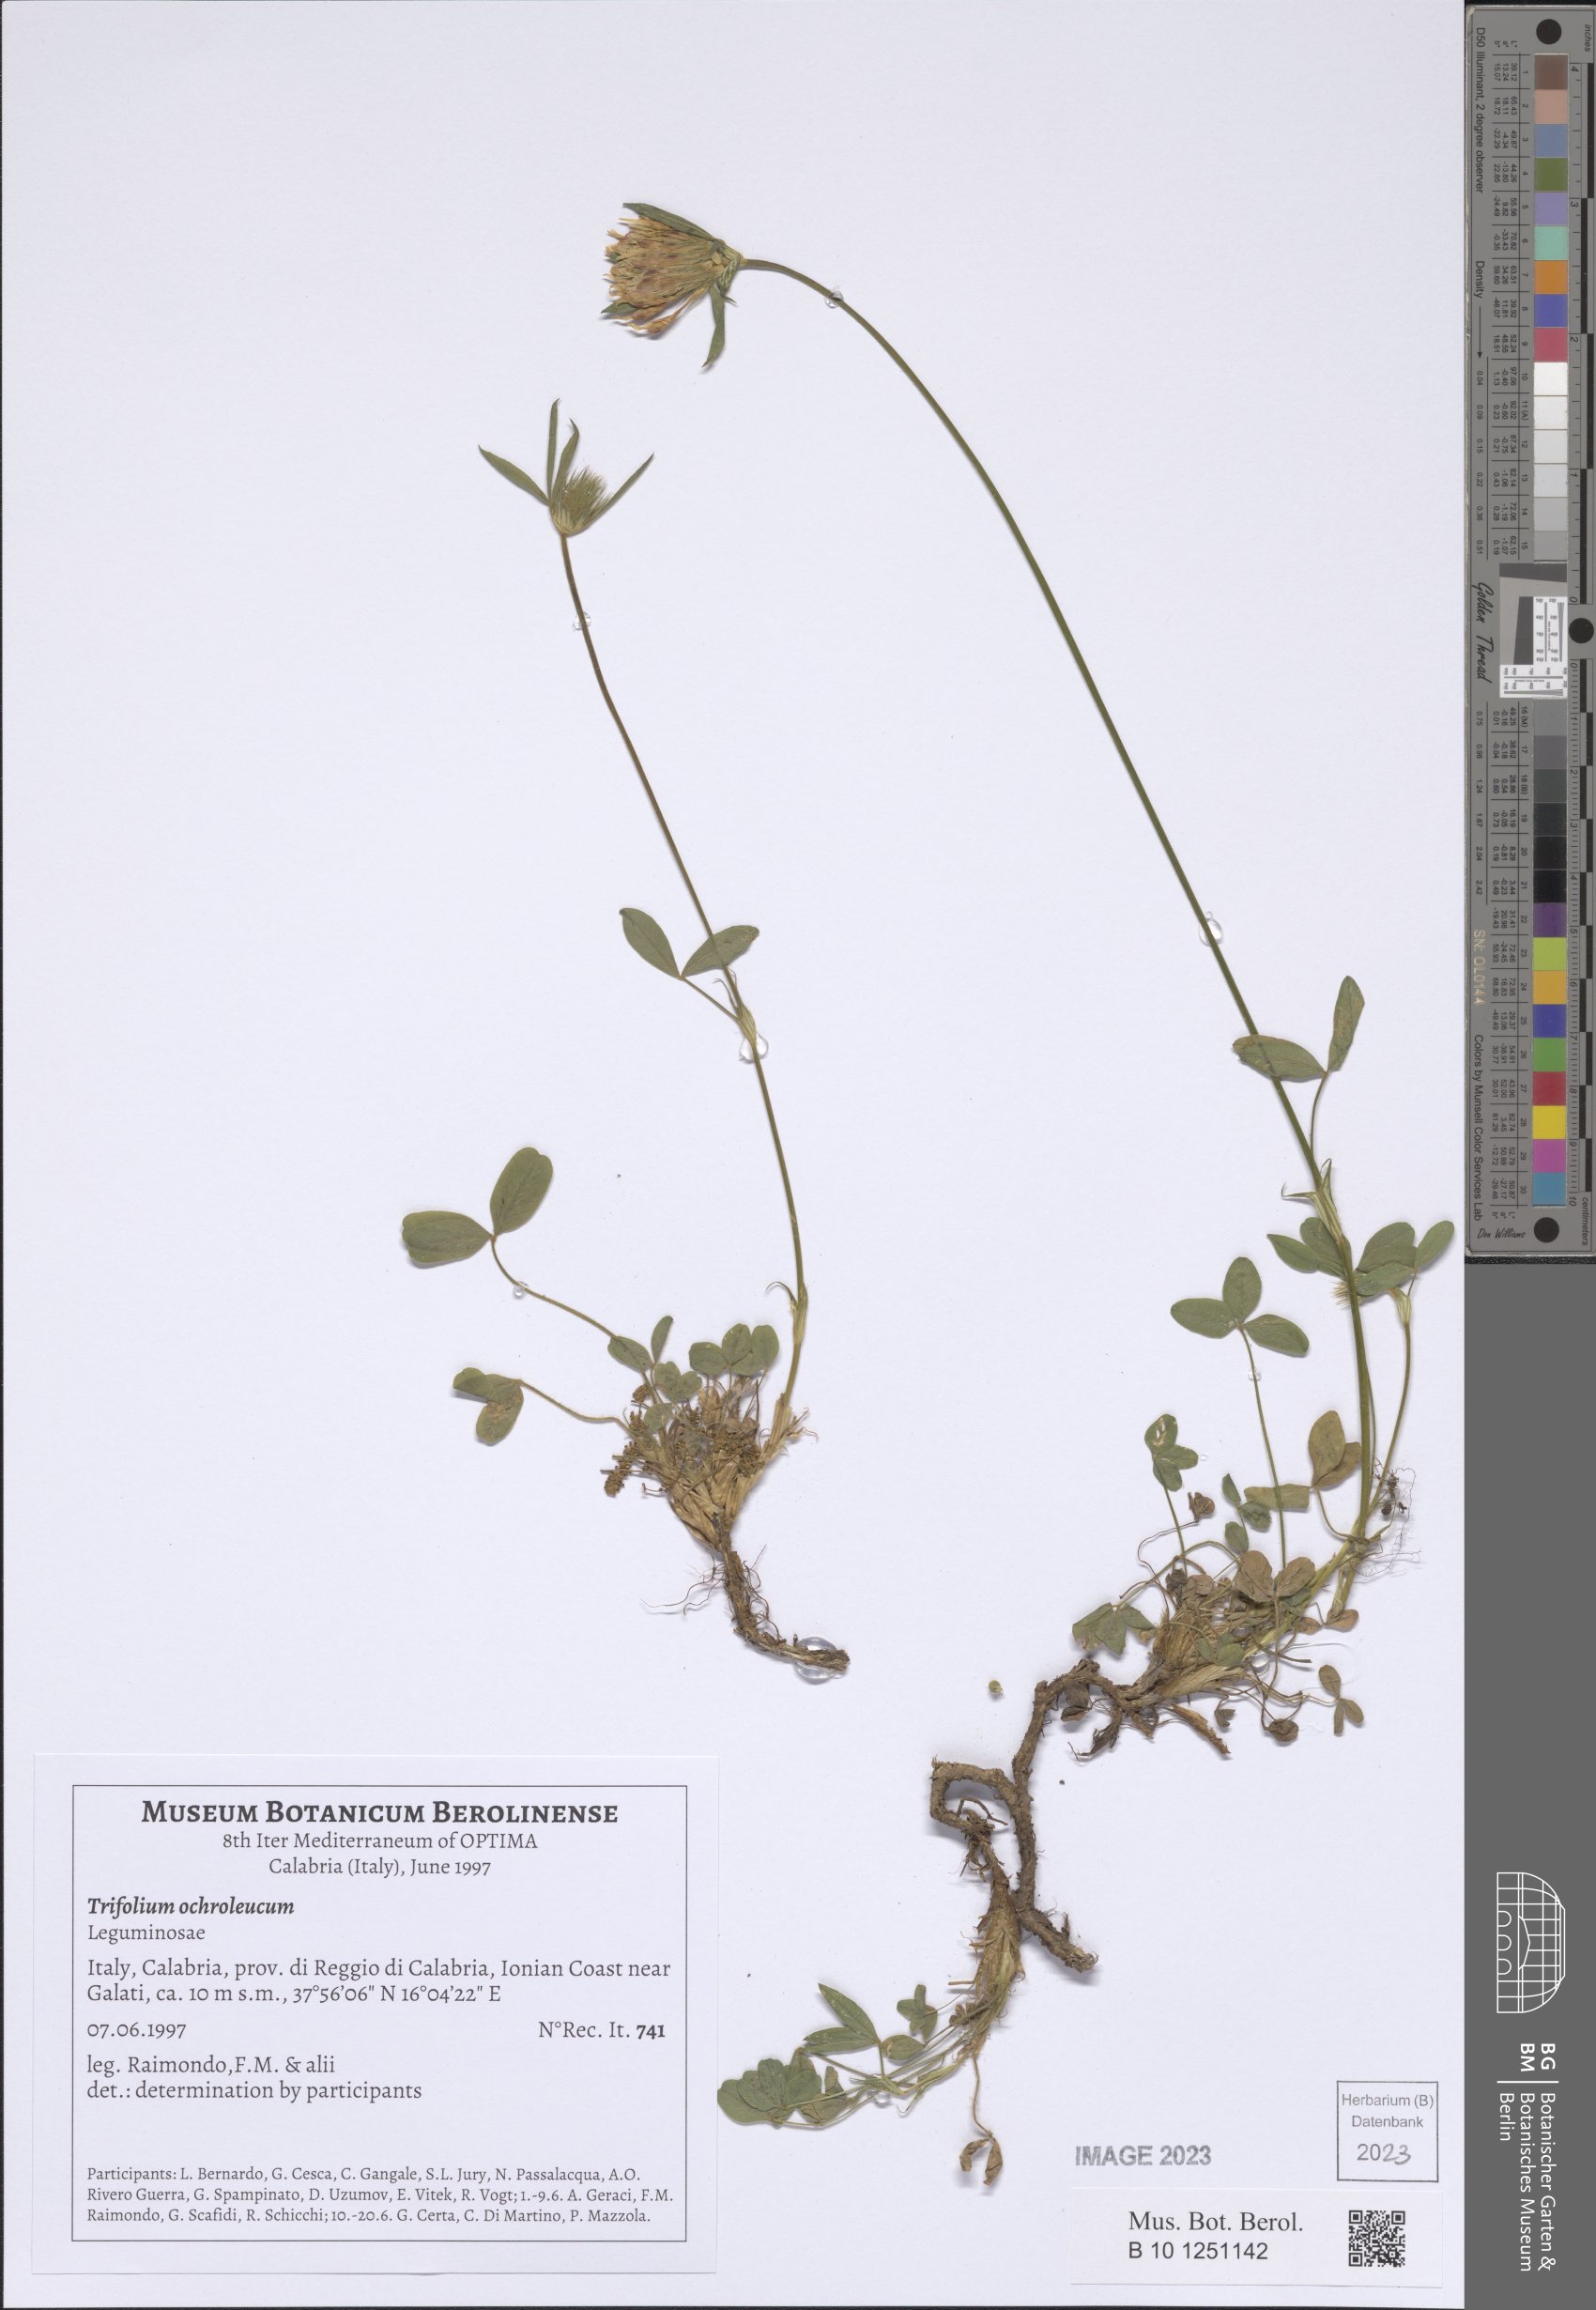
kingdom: Plantae
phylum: Tracheophyta
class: Magnoliopsida
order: Fabales
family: Fabaceae
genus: Trifolium
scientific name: Trifolium ochroleucon
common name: Sulphur clover
